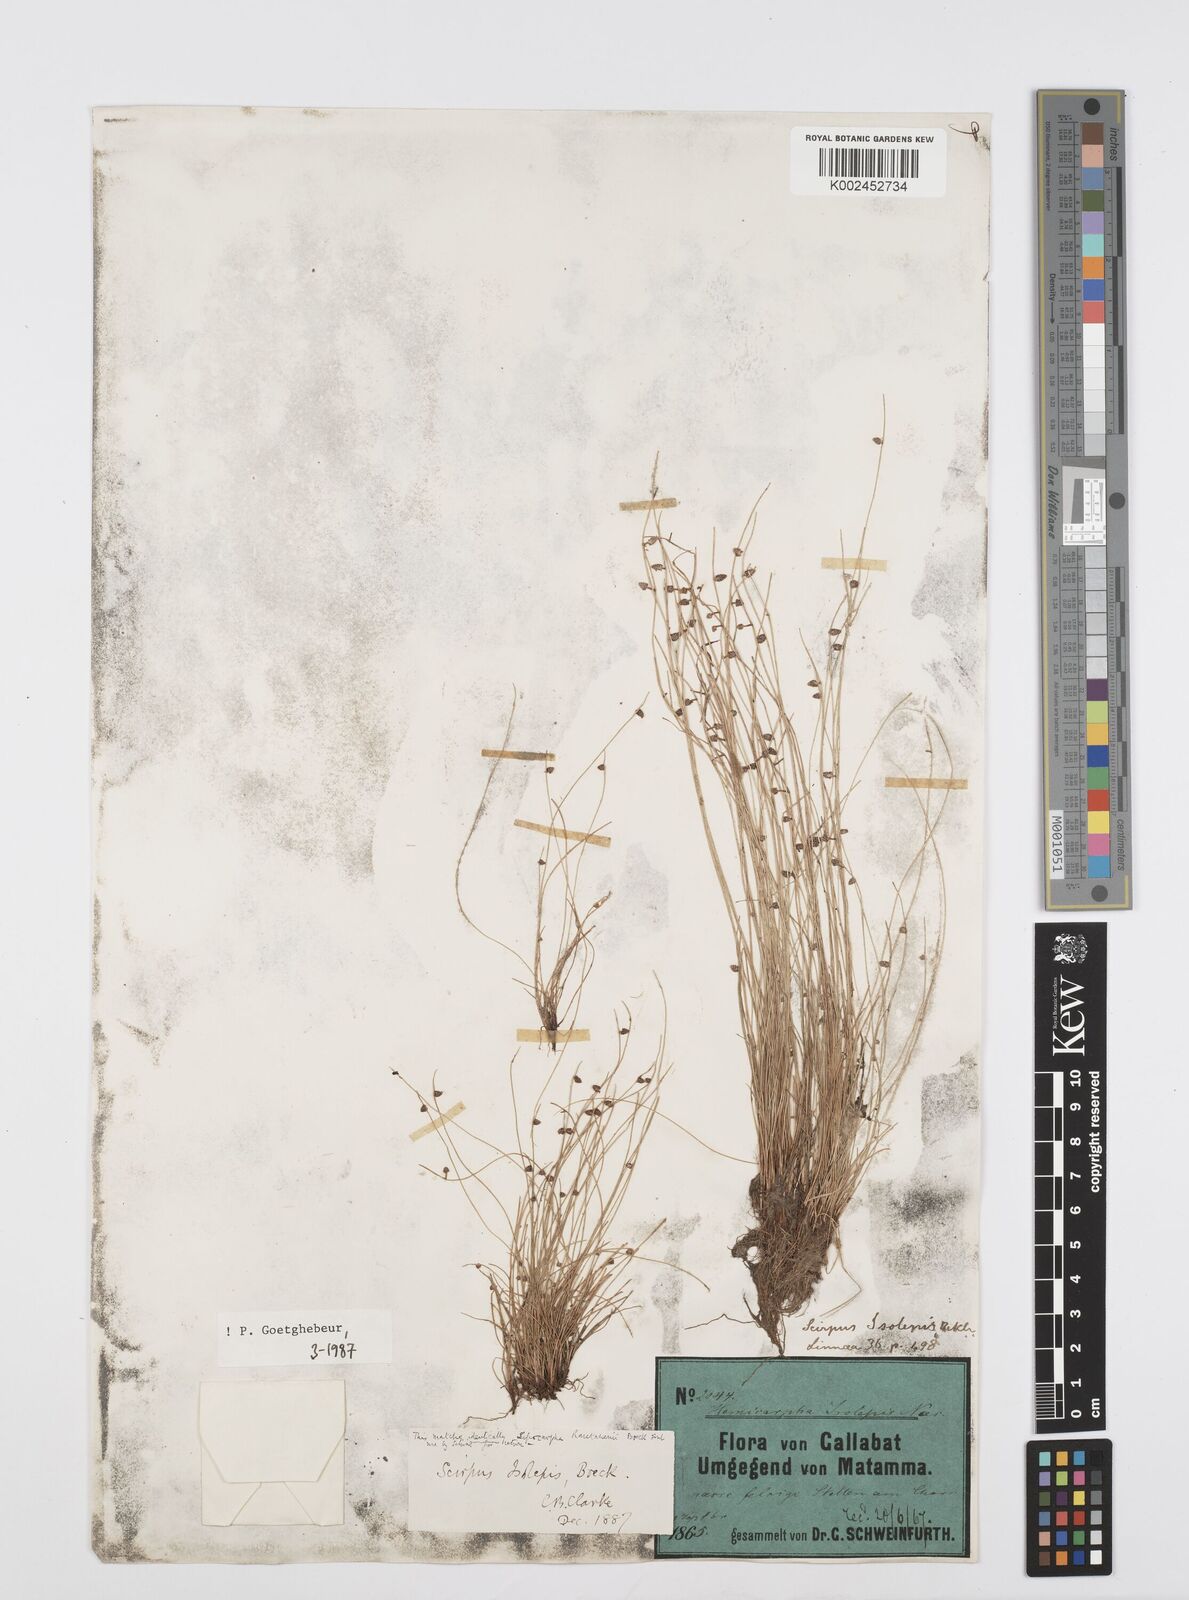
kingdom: Plantae
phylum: Tracheophyta
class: Liliopsida
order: Poales
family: Cyperaceae
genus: Cyperus
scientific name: Cyperus isolepis
